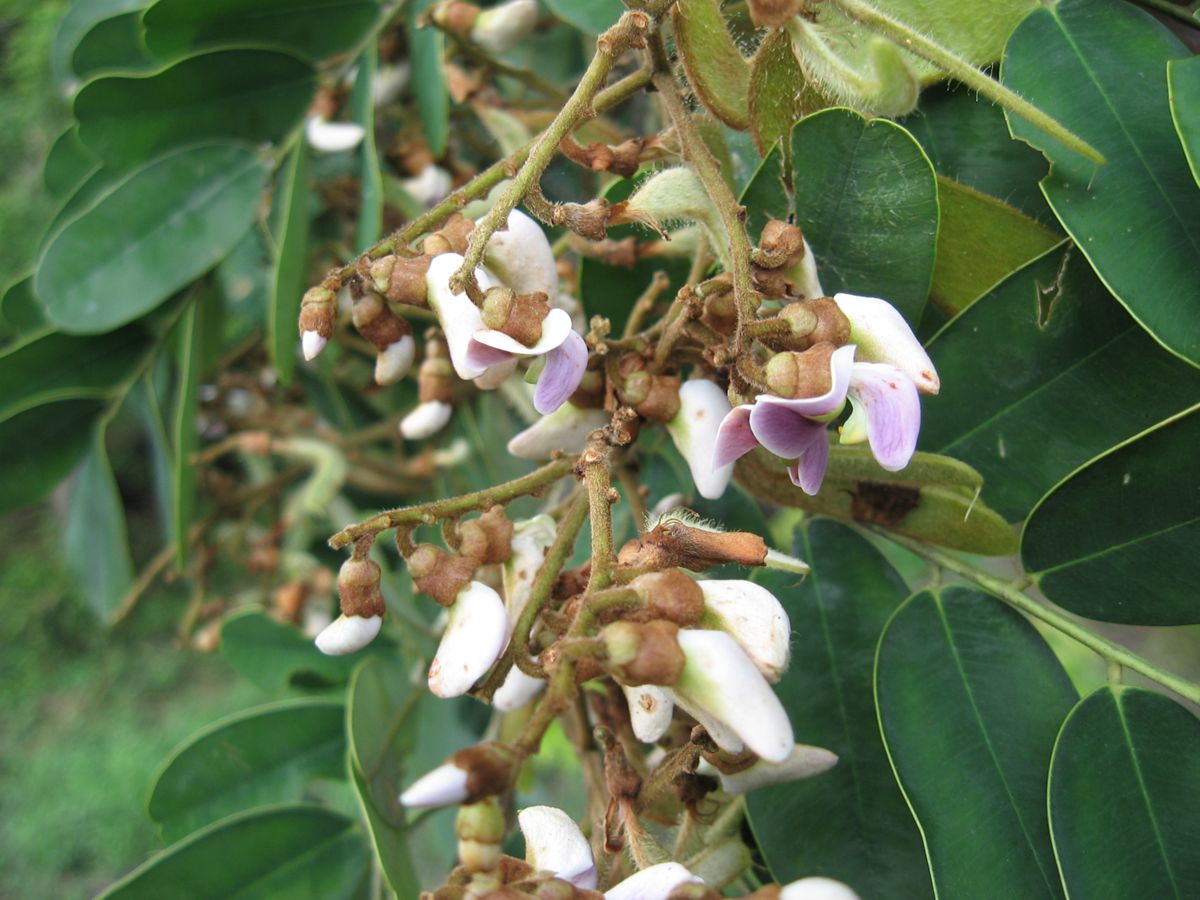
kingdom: Plantae
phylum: Tracheophyta
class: Magnoliopsida
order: Fabales
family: Fabaceae
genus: Machaerium
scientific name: Machaerium biovulatum
